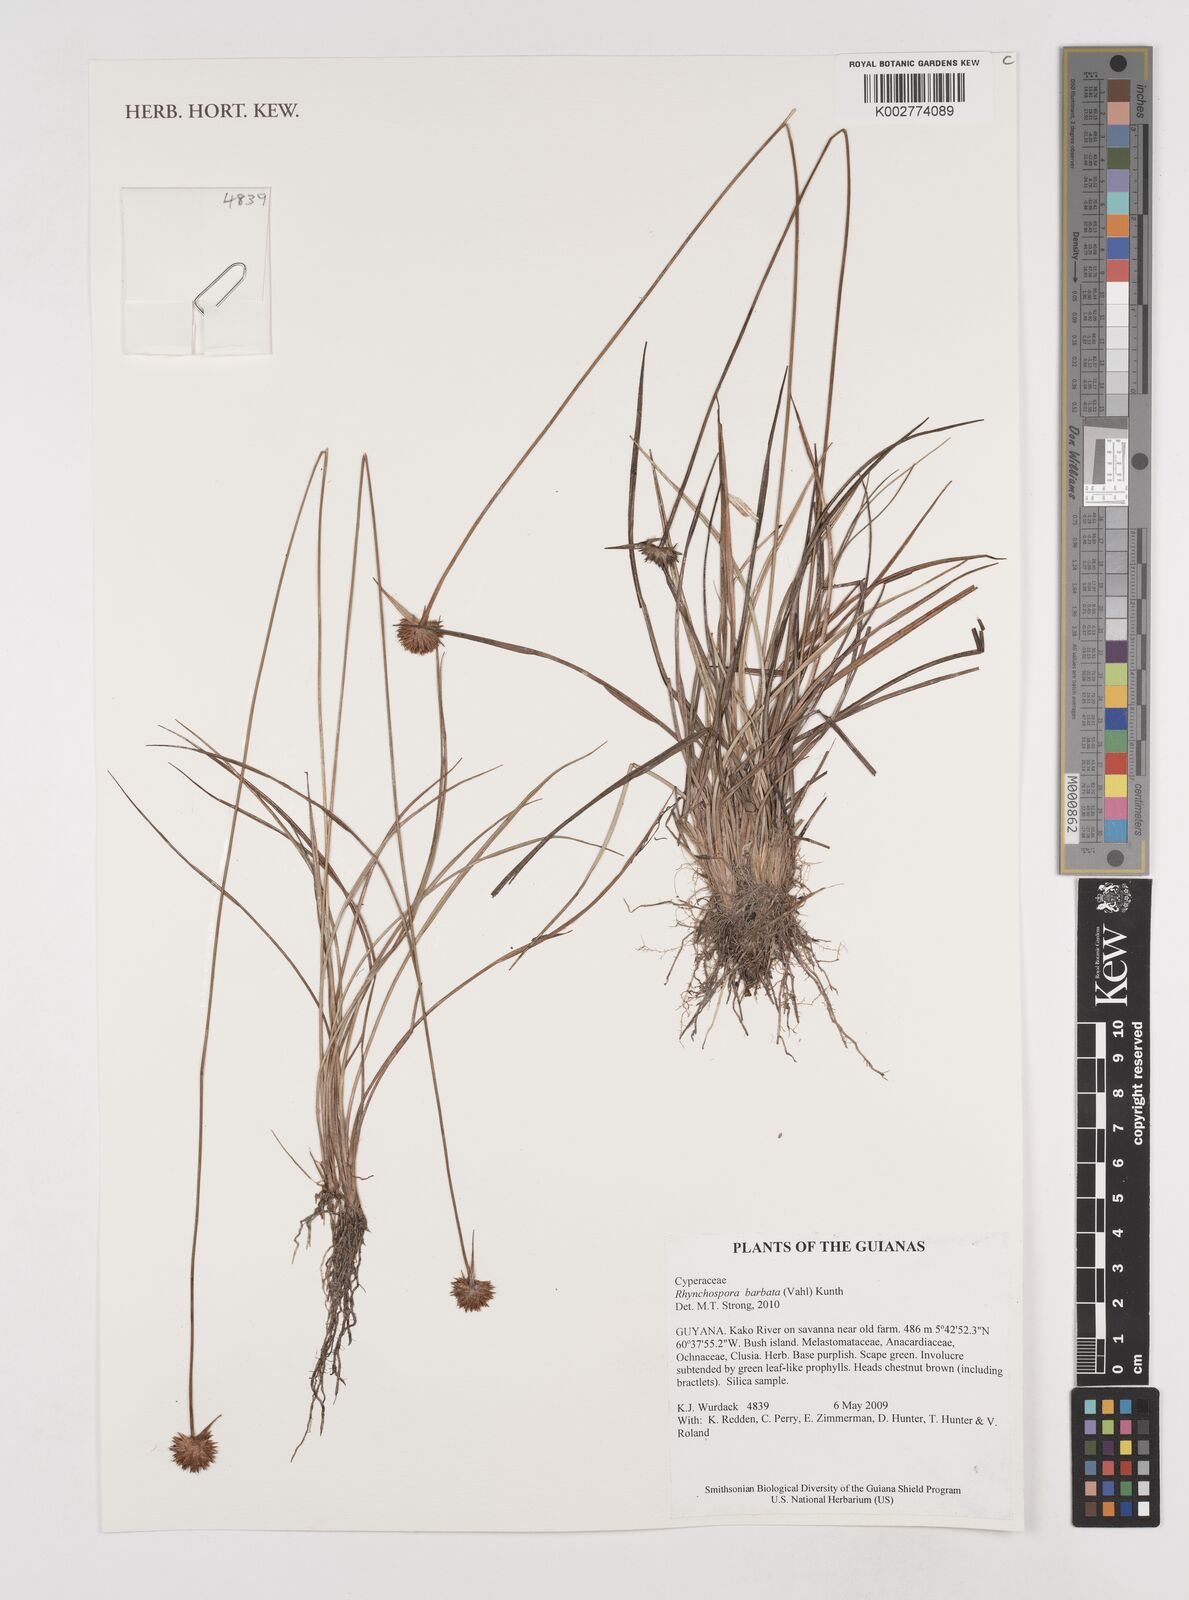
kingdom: Plantae
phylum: Tracheophyta
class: Liliopsida
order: Poales
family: Cyperaceae
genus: Rhynchospora
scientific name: Rhynchospora barbata
